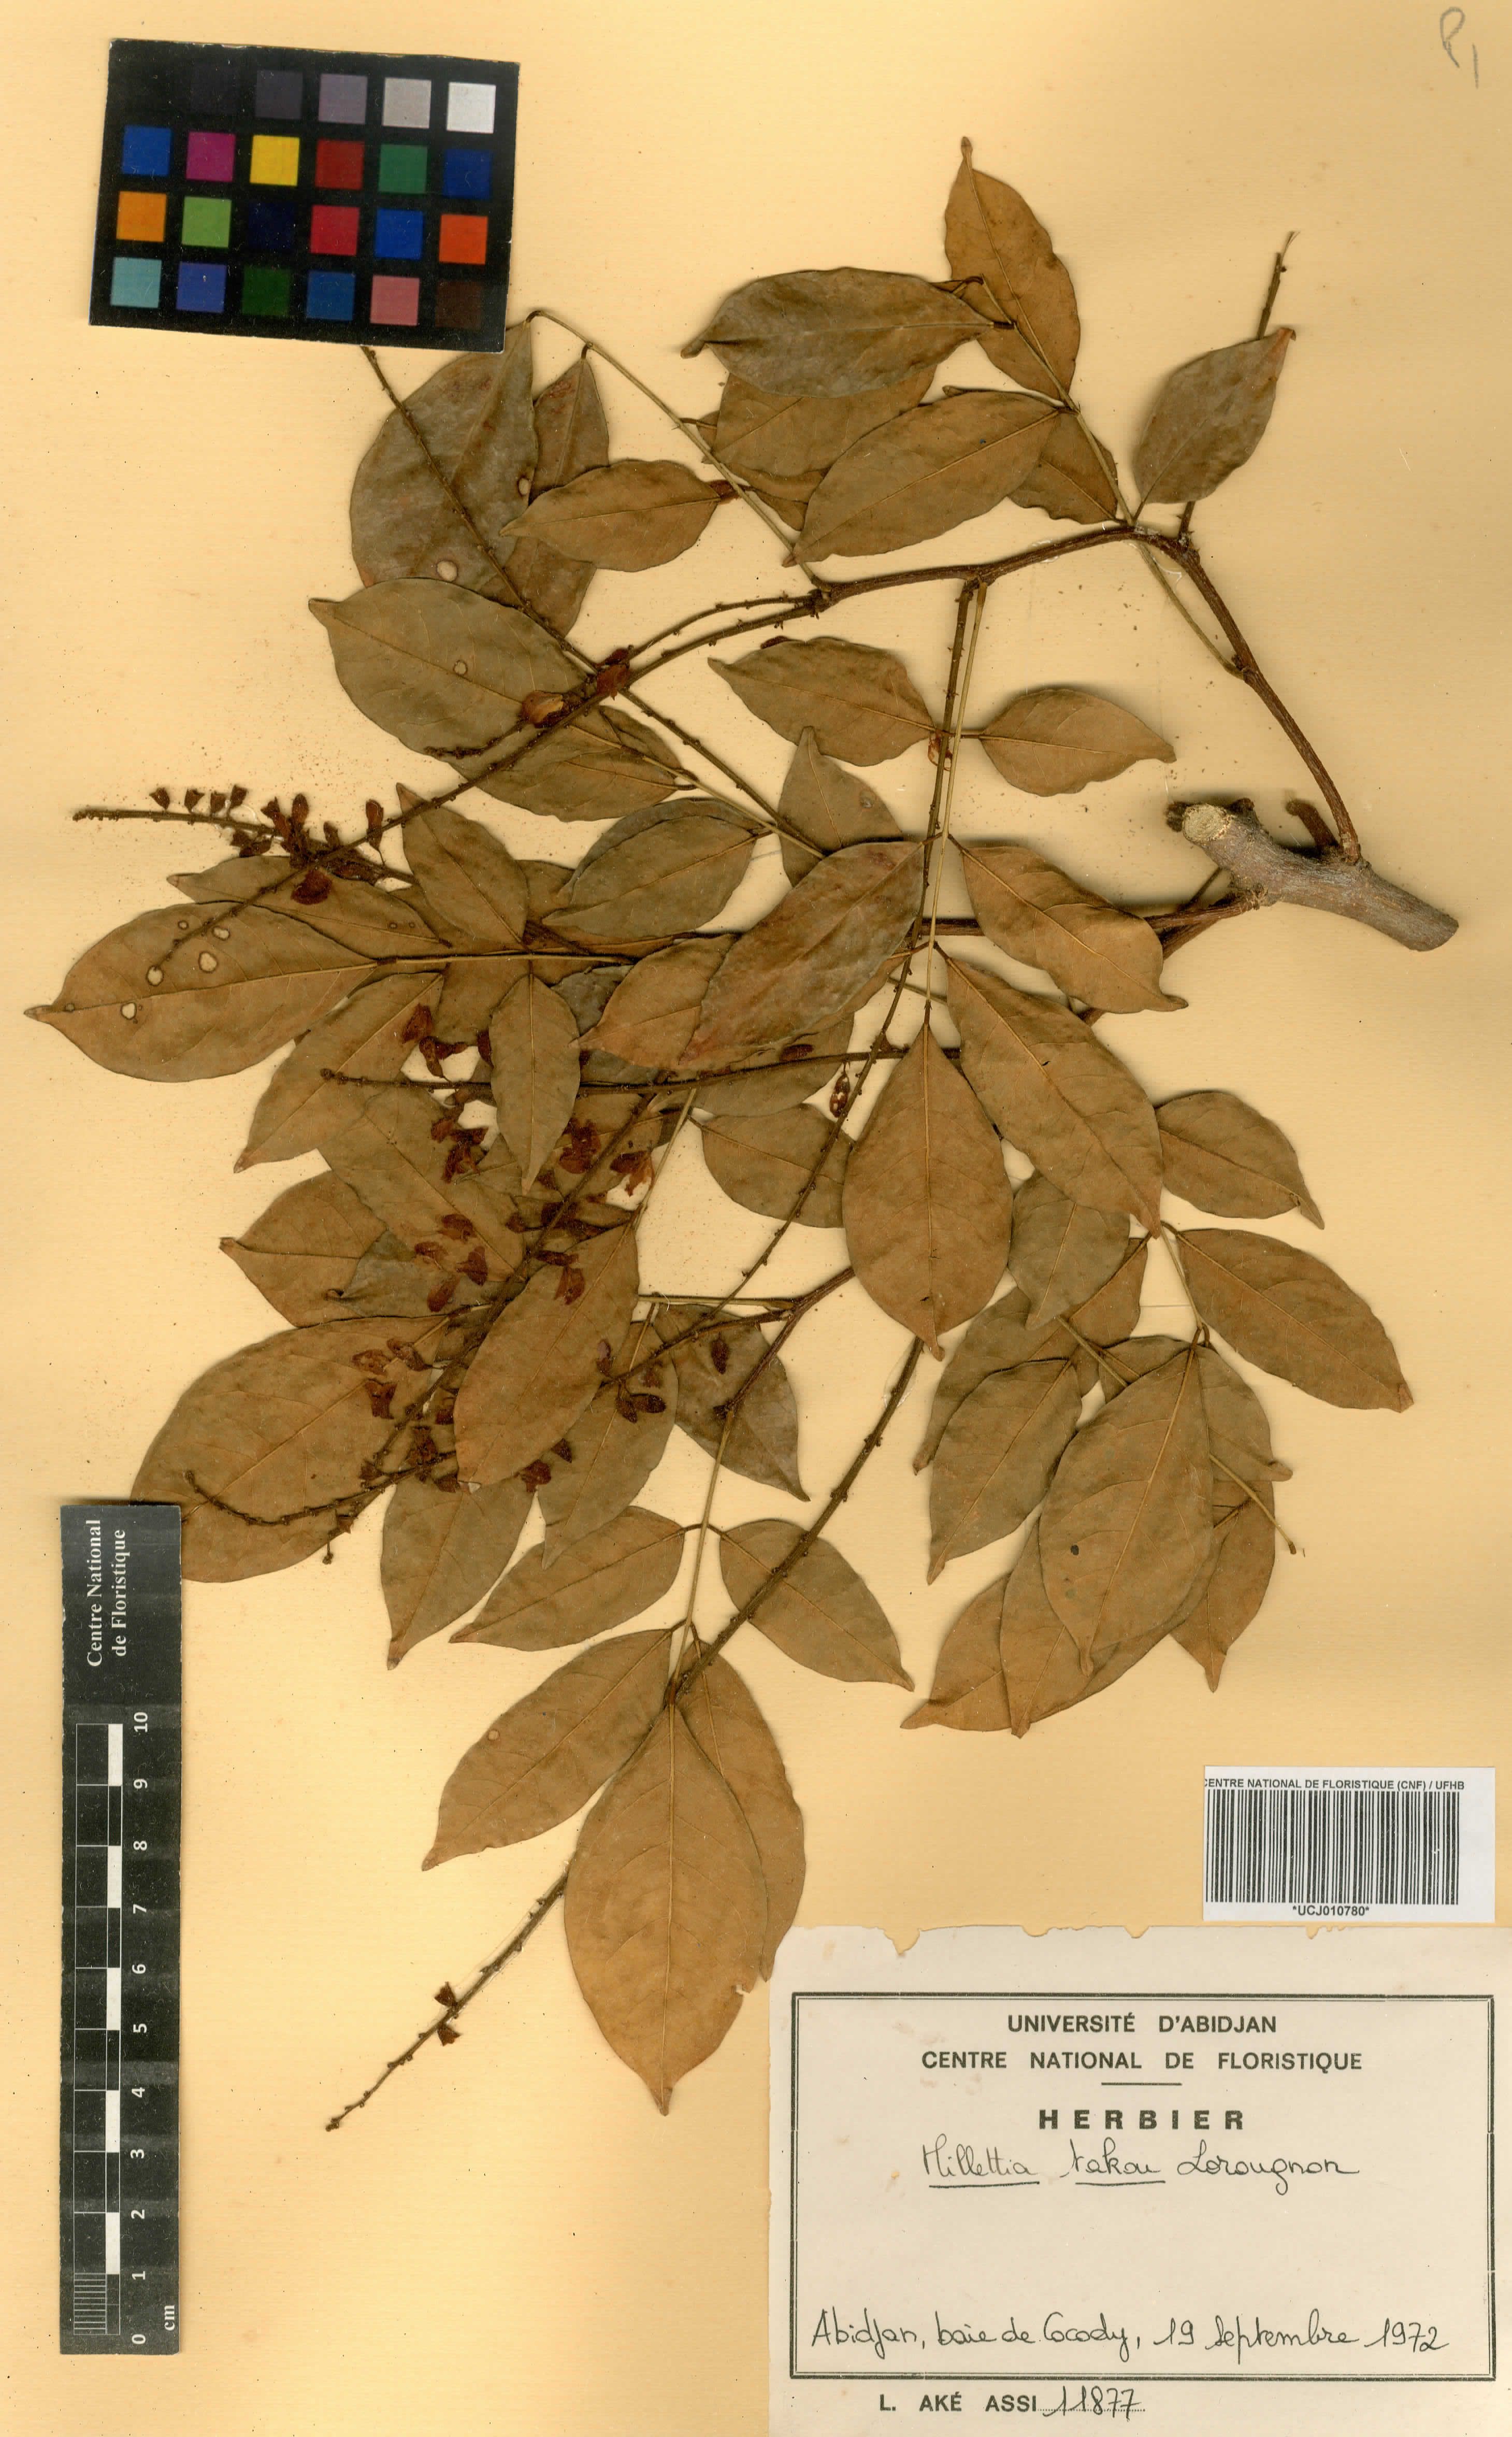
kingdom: Plantae
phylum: Tracheophyta
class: Magnoliopsida
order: Fabales
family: Fabaceae
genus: Millettia
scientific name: Millettia takou
